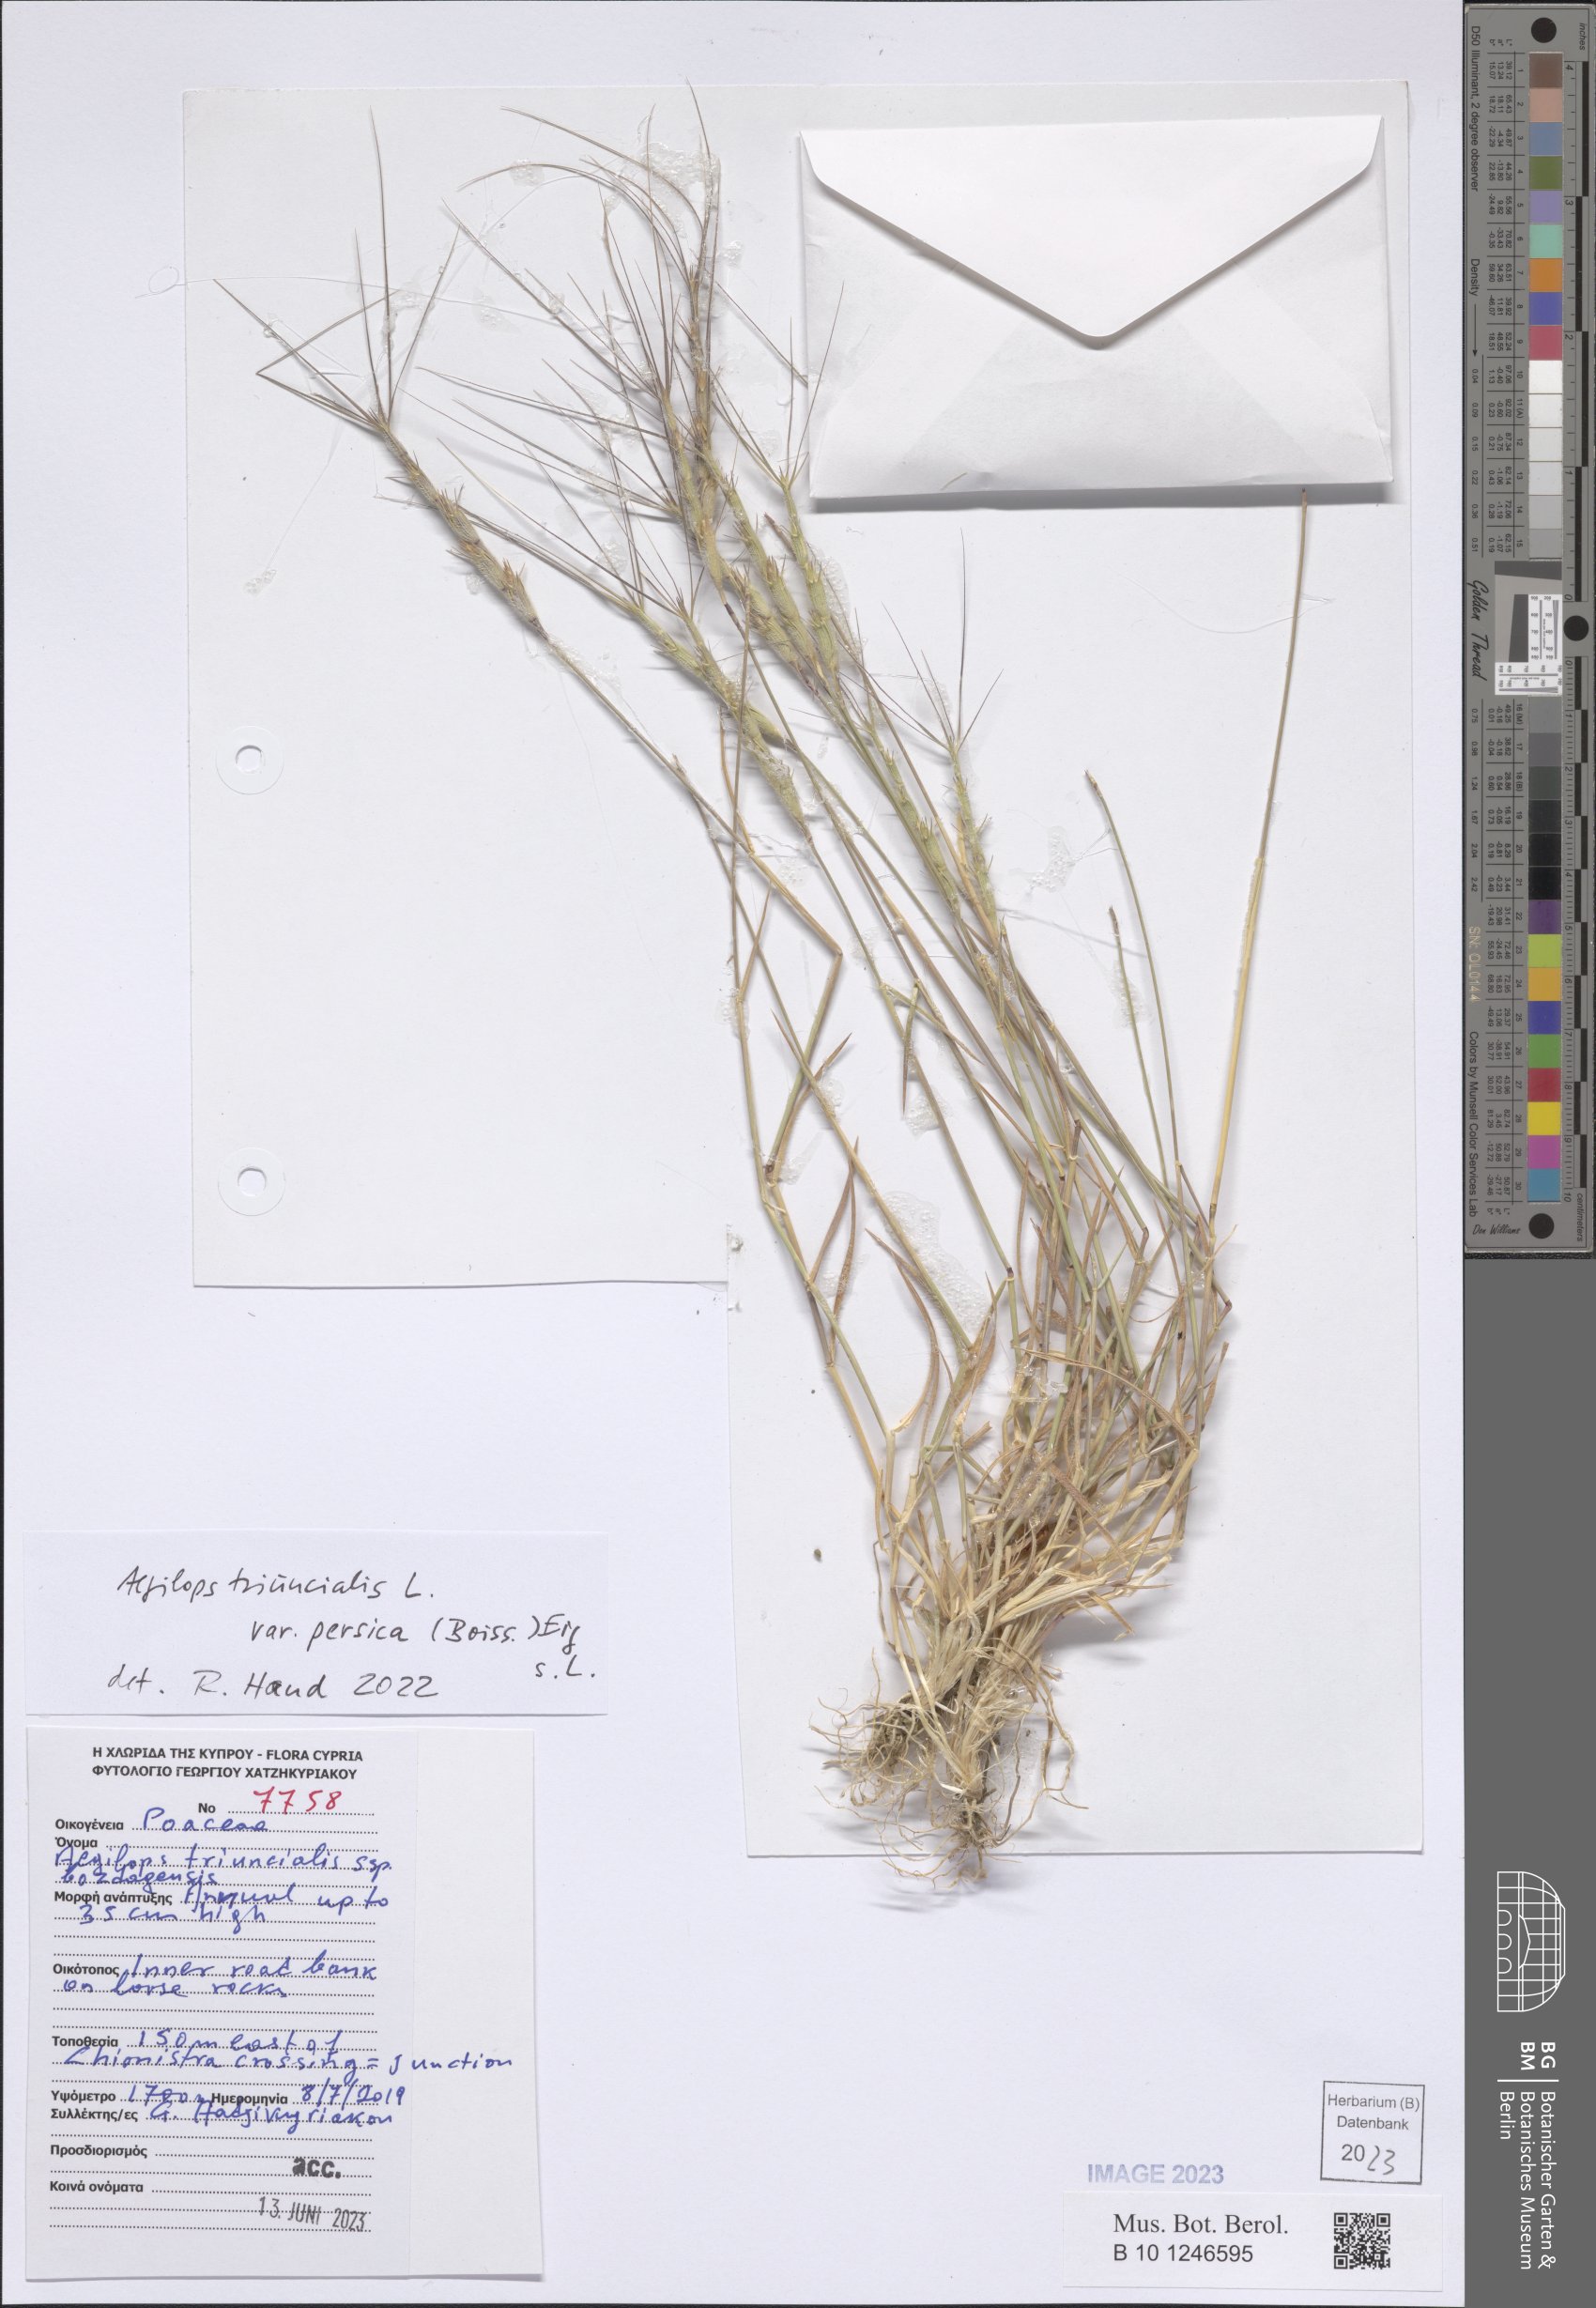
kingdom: Plantae
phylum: Tracheophyta
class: Liliopsida
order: Poales
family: Poaceae
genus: Aegilops
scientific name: Aegilops triuncialis
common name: Barb goat grass
